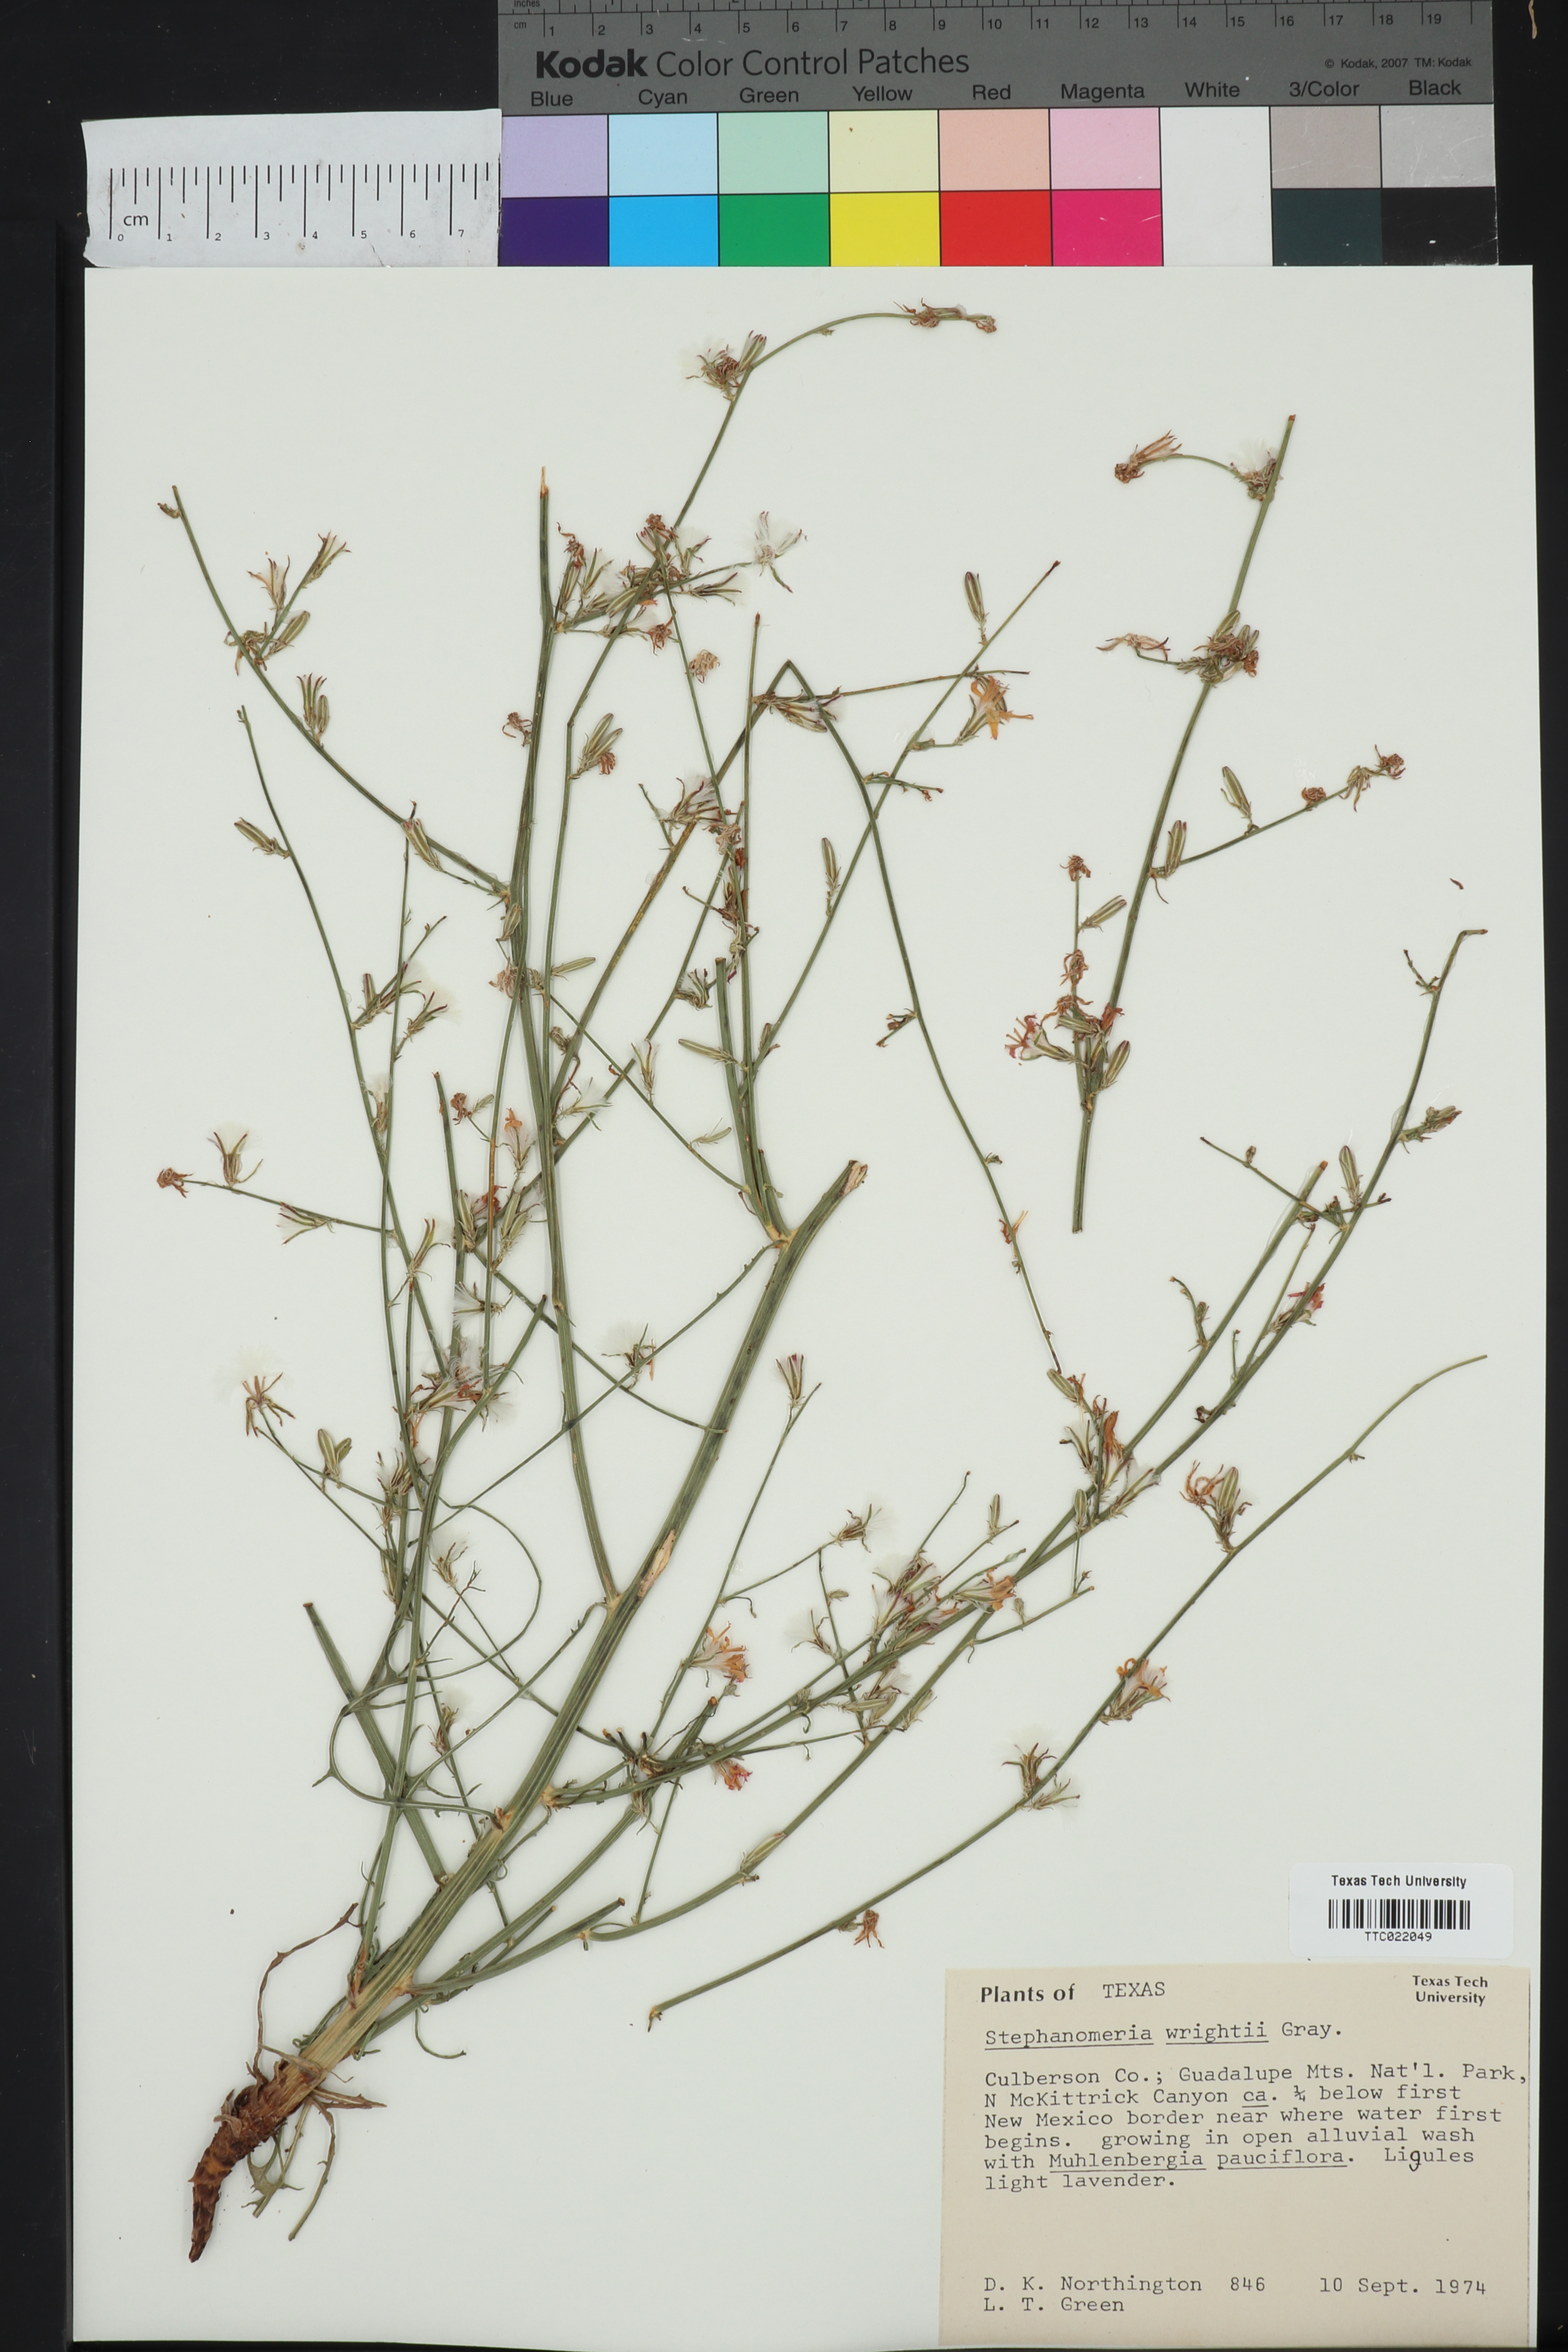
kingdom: Plantae
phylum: Tracheophyta
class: Magnoliopsida
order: Asterales
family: Asteraceae
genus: Stephanomeria
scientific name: Stephanomeria tenuifolia
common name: Slender wirelettuce
